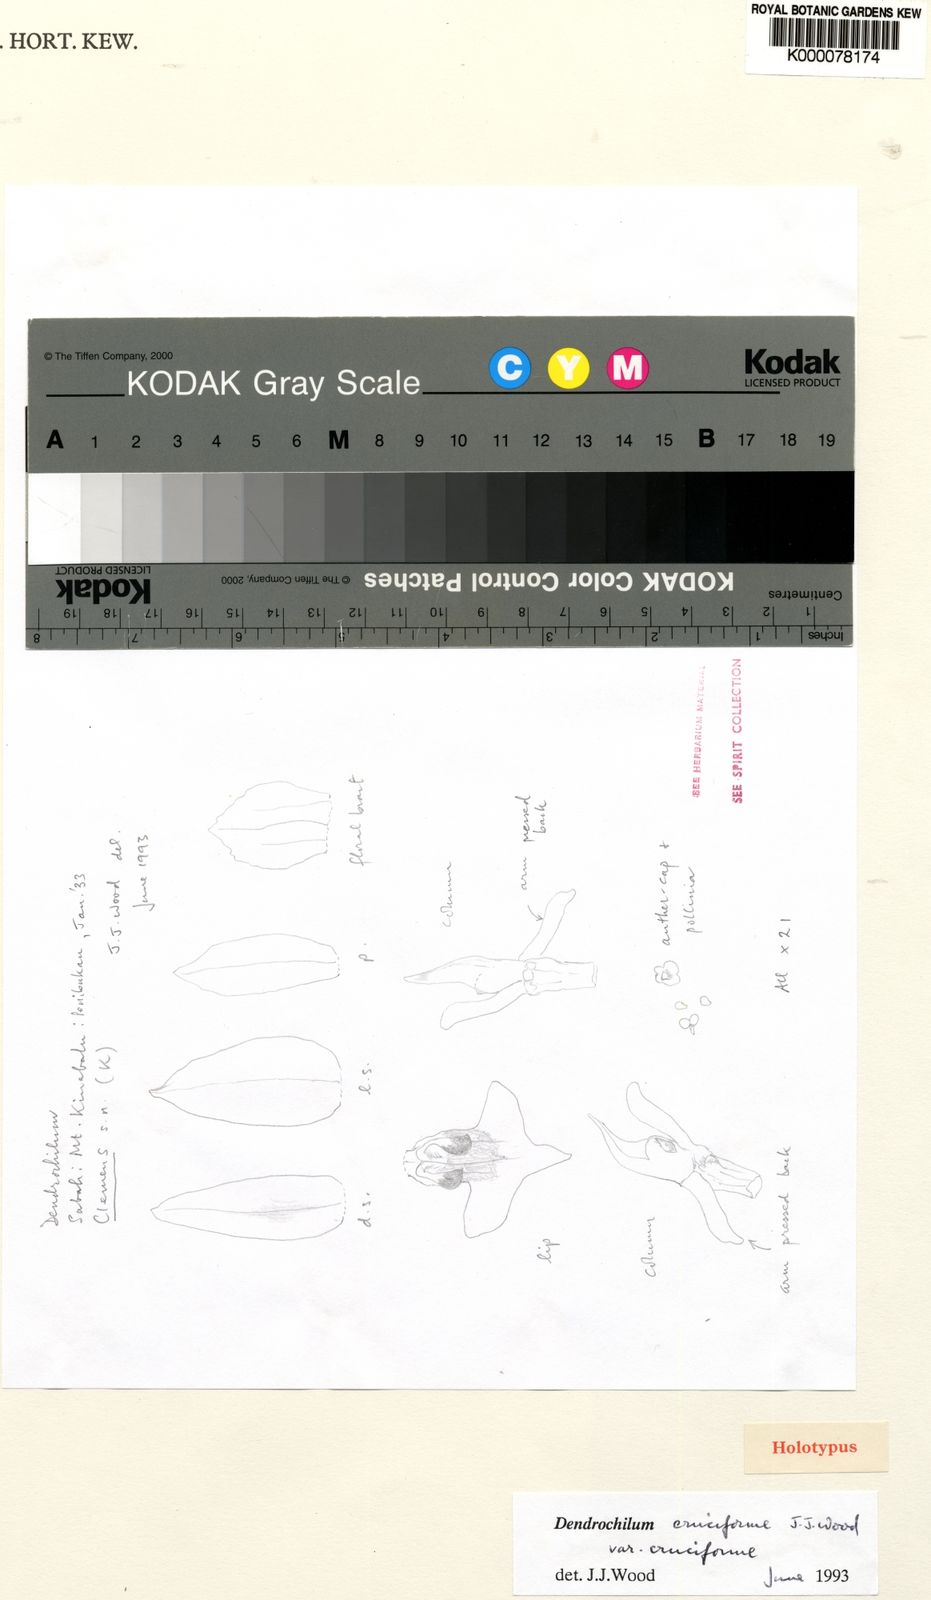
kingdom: Plantae
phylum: Tracheophyta
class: Liliopsida
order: Asparagales
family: Orchidaceae
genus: Coelogyne
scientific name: Coelogyne cruciformis
